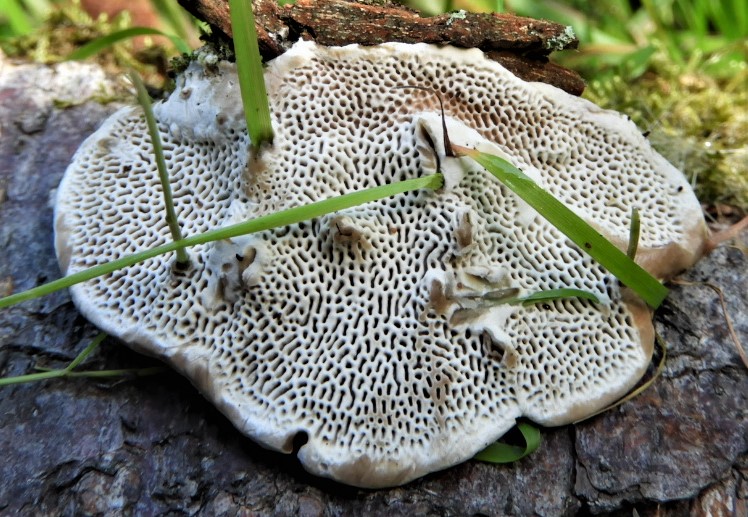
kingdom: Fungi
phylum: Basidiomycota
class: Agaricomycetes
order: Polyporales
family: Polyporaceae
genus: Daedaleopsis
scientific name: Daedaleopsis confragosa
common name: rødmende læderporesvamp
